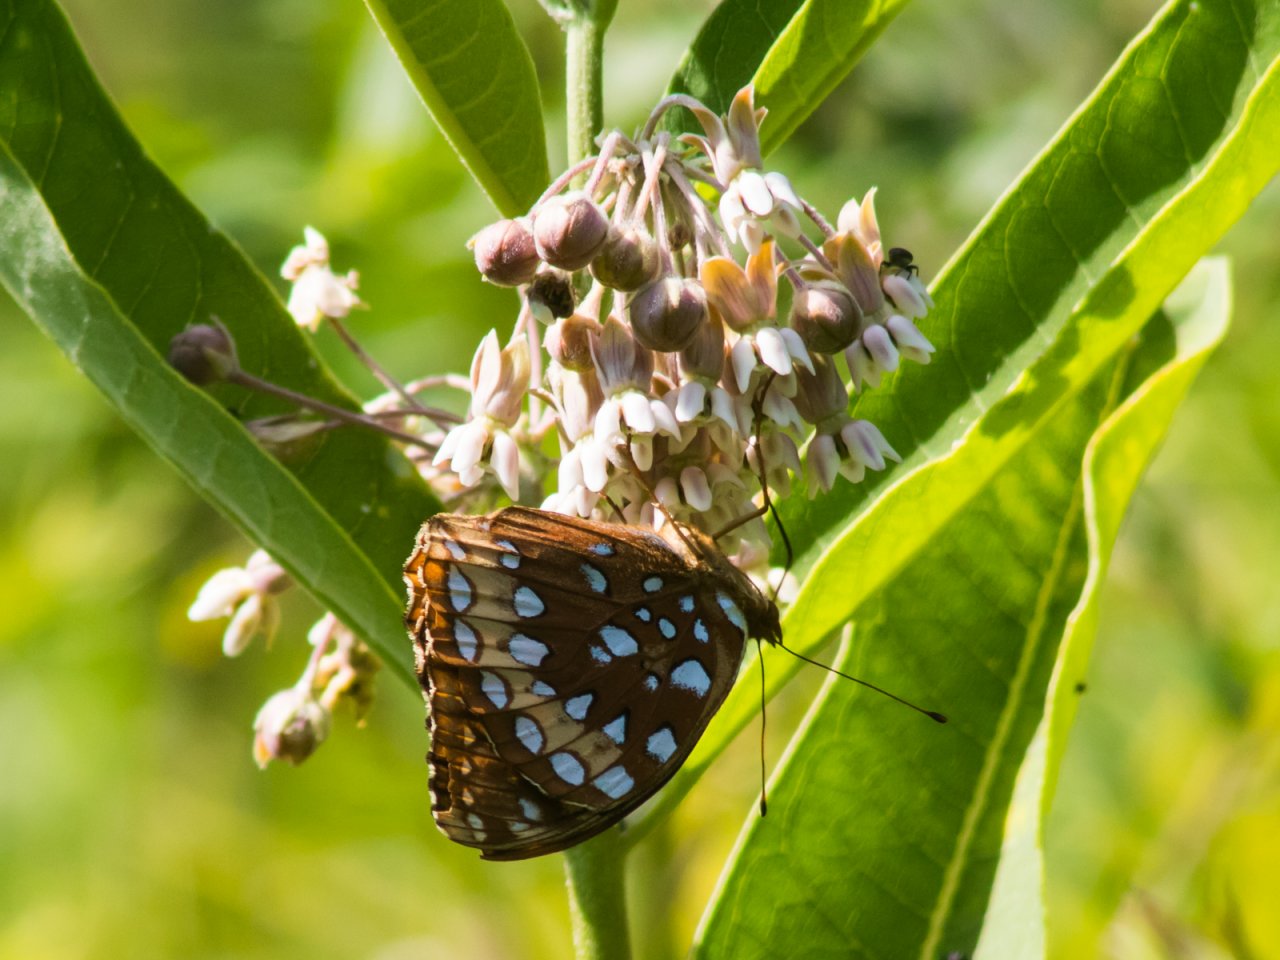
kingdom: Animalia
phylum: Arthropoda
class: Insecta
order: Lepidoptera
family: Nymphalidae
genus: Speyeria
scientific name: Speyeria cybele
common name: Great Spangled Fritillary
